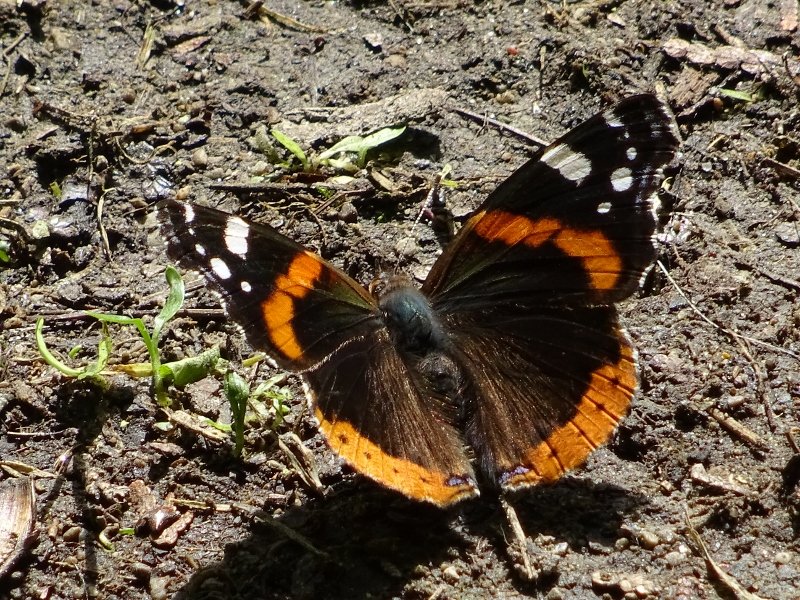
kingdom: Animalia
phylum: Arthropoda
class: Insecta
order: Lepidoptera
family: Nymphalidae
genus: Vanessa
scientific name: Vanessa atalanta
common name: Red Admiral
